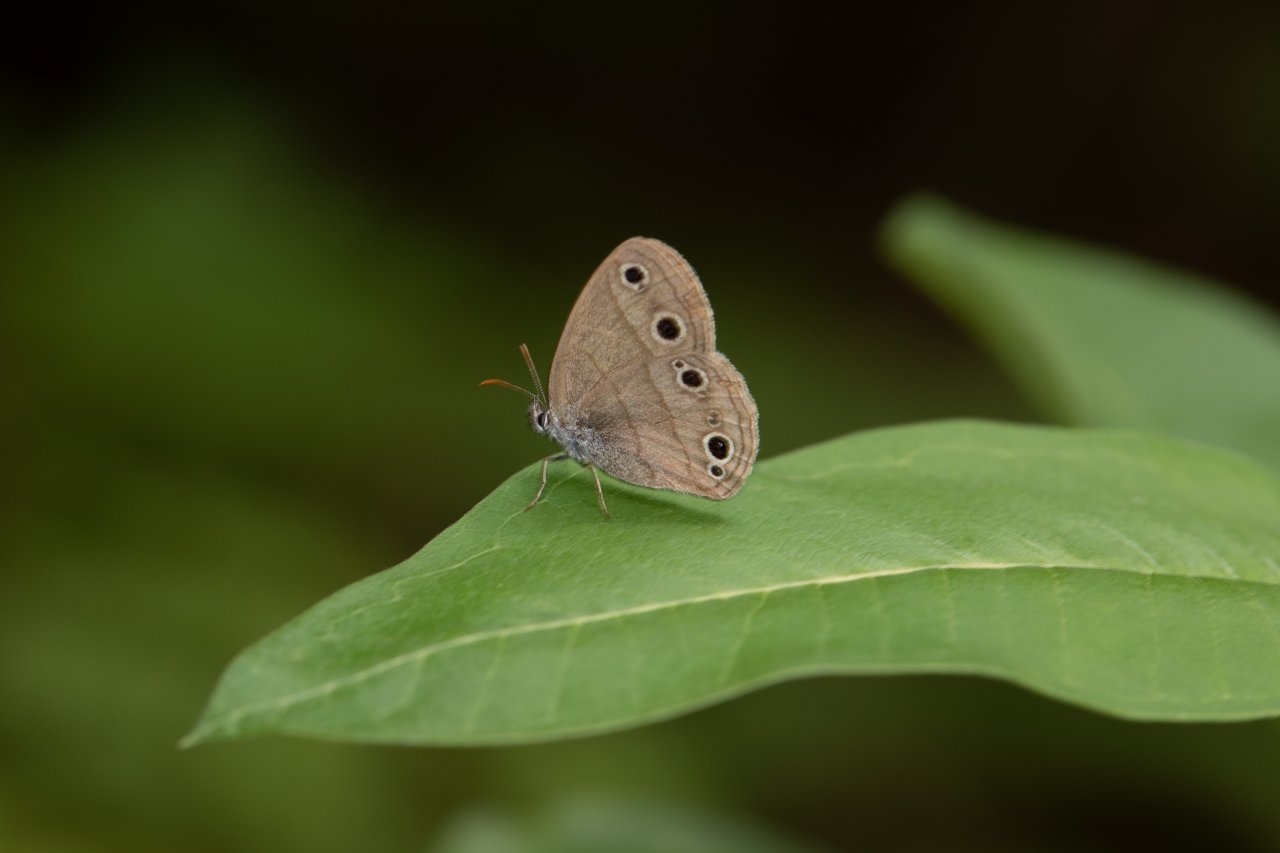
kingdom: Animalia
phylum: Arthropoda
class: Insecta
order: Lepidoptera
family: Nymphalidae
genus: Euptychia
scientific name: Euptychia cymela
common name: Little Wood Satyr
